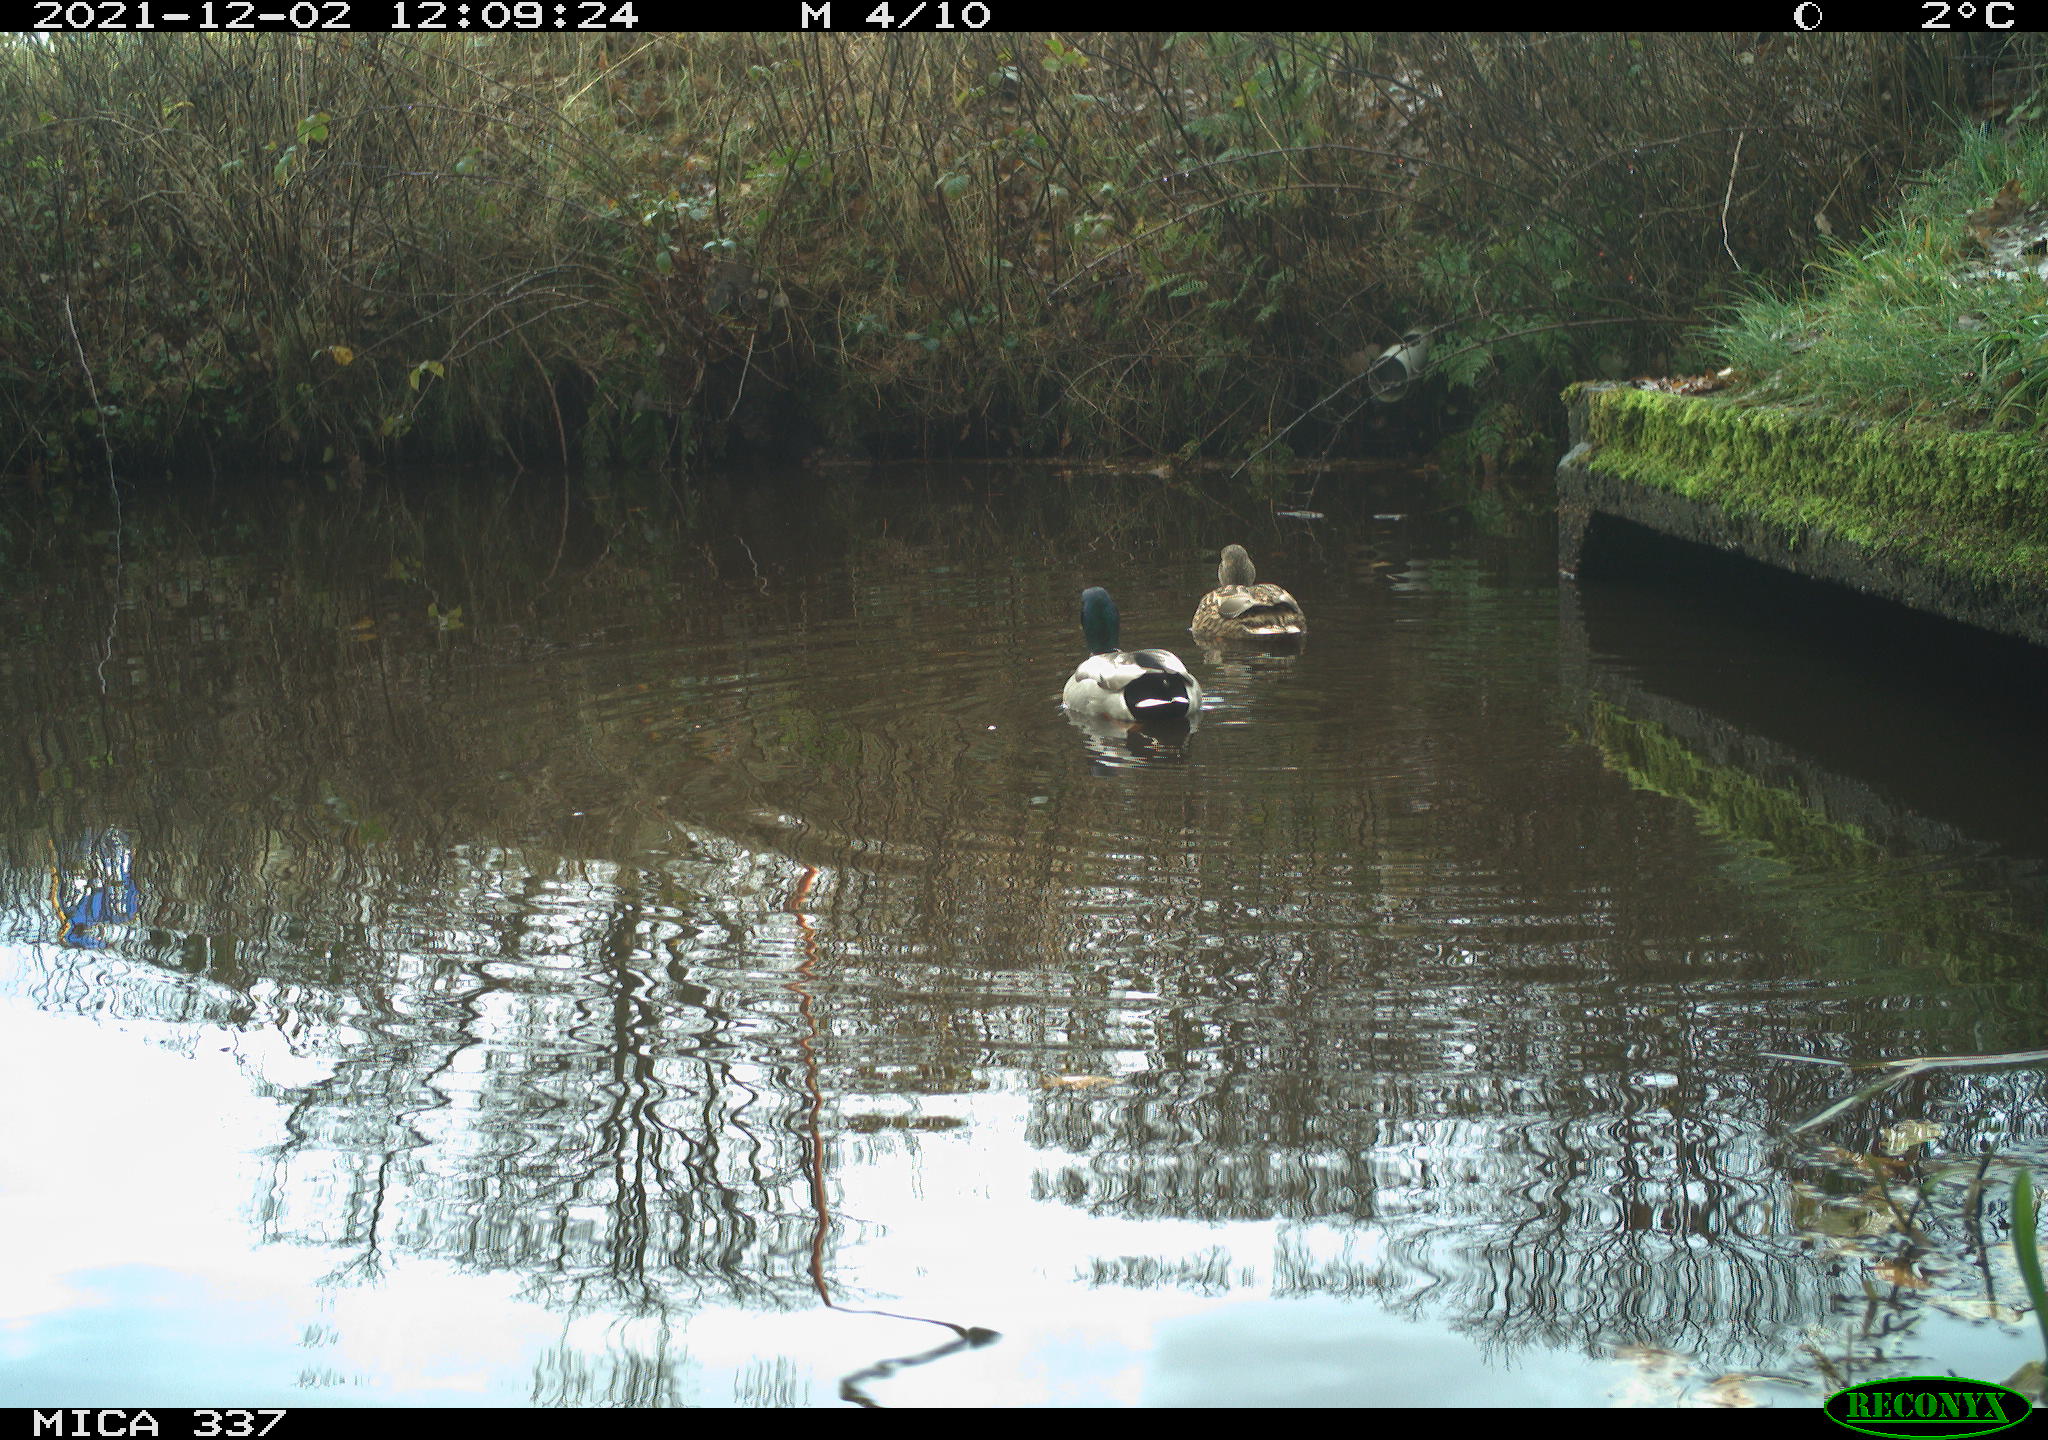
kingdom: Animalia
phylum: Chordata
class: Aves
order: Anseriformes
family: Anatidae
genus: Anas
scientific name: Anas platyrhynchos
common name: Mallard
